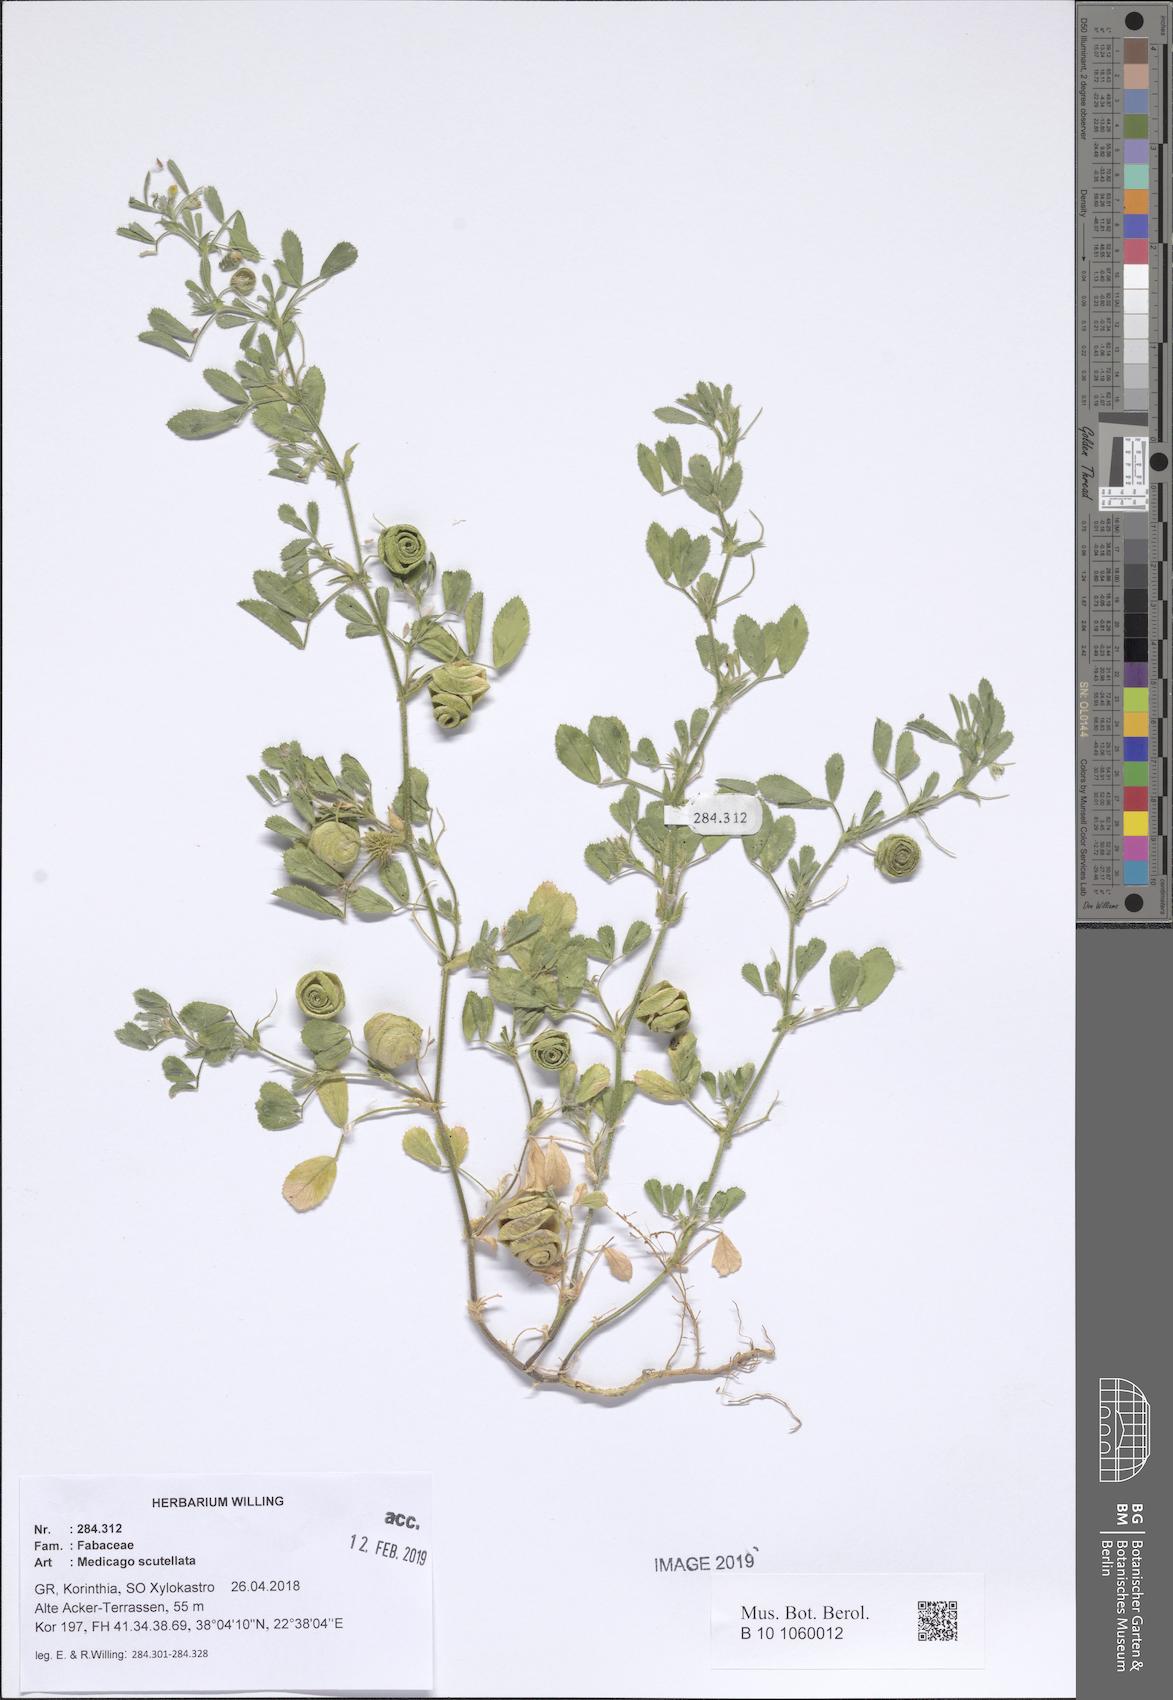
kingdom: Plantae
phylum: Tracheophyta
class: Magnoliopsida
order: Fabales
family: Fabaceae
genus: Medicago
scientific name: Medicago scutellata
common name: Snail medick
